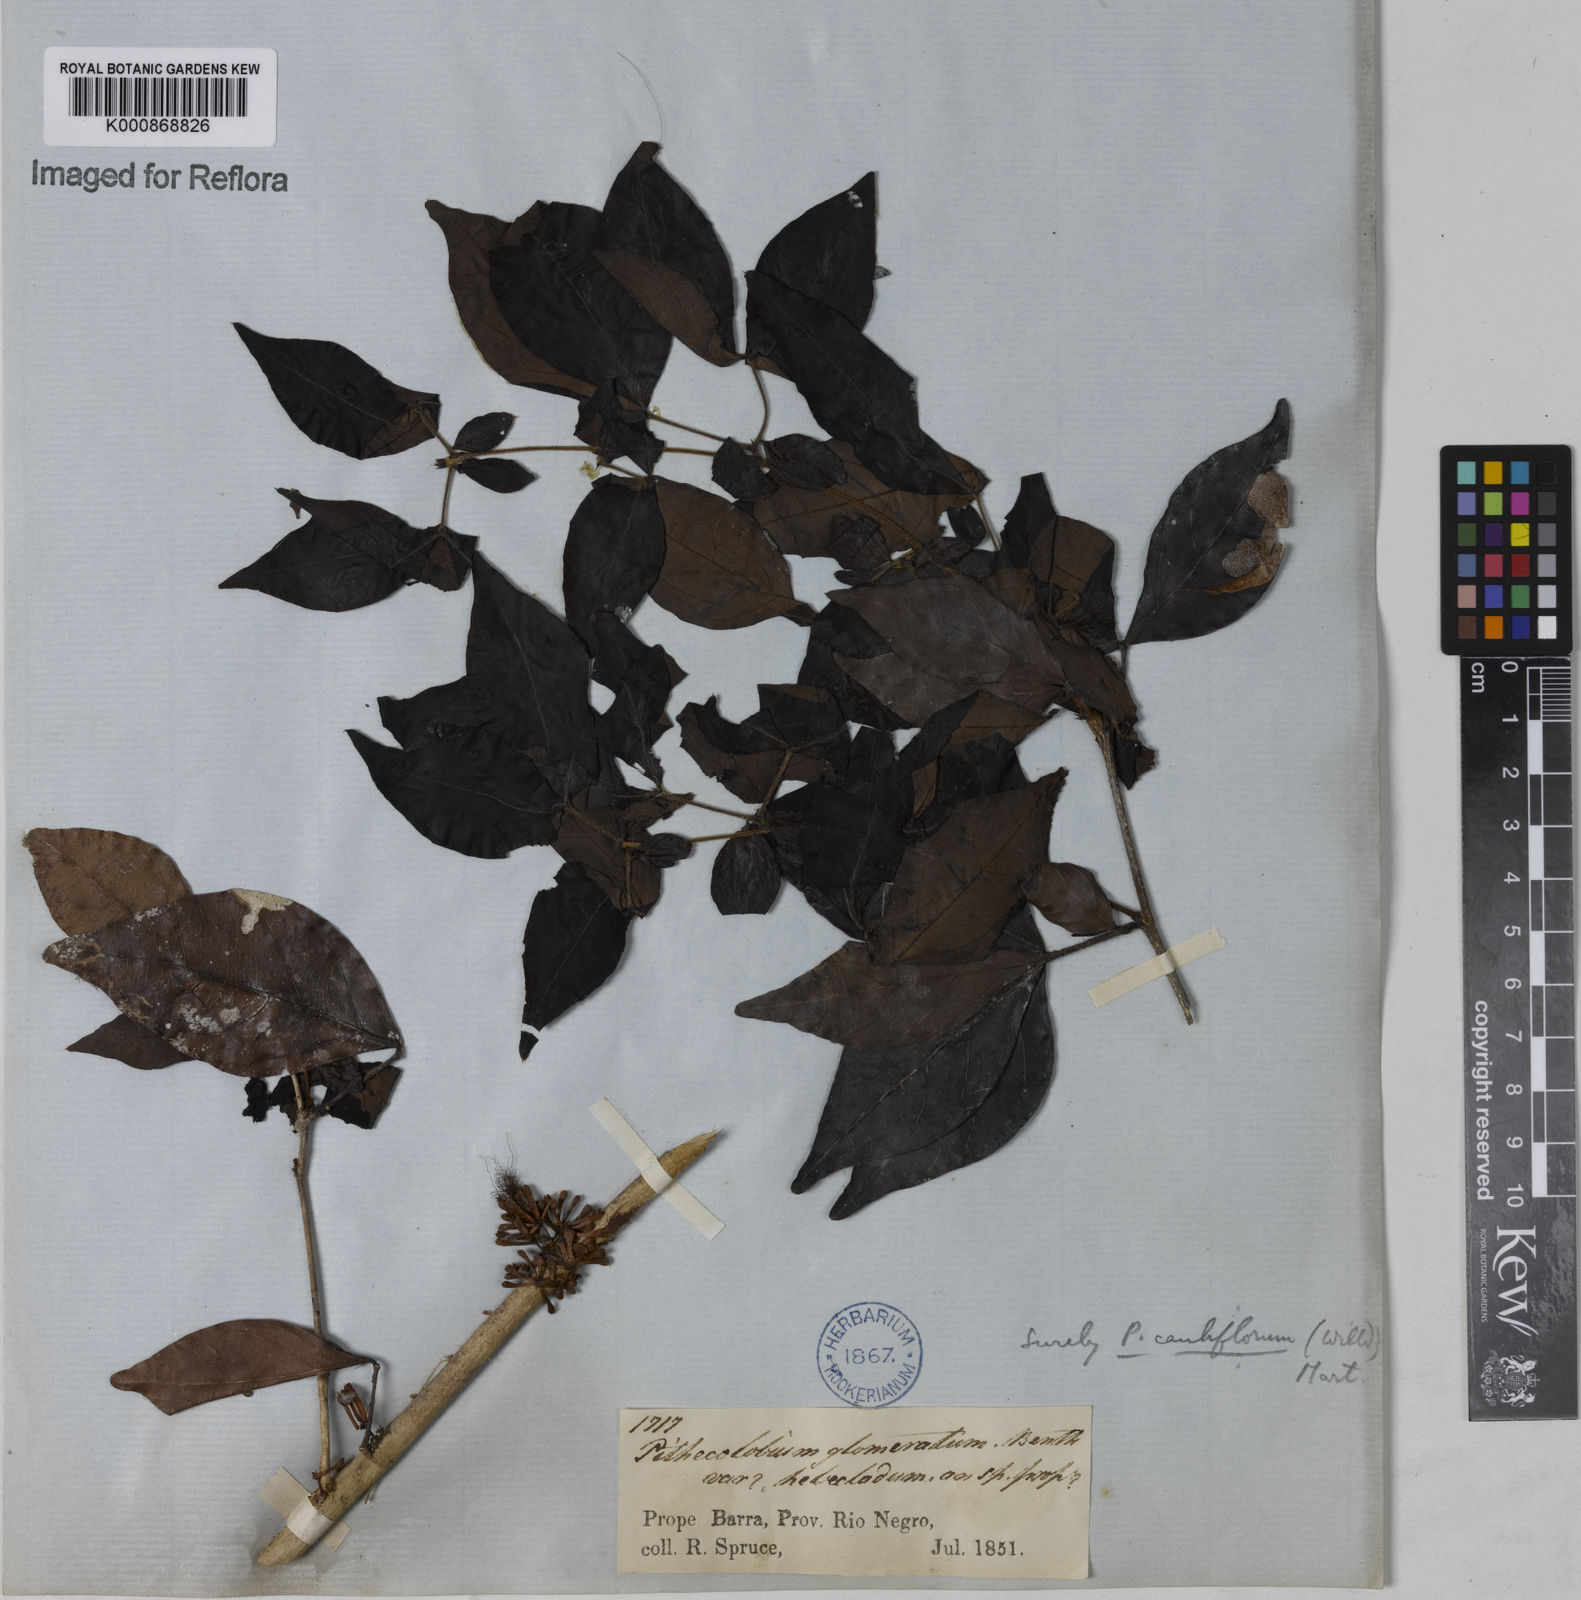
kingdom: Plantae
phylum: Tracheophyta
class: Magnoliopsida
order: Fabales
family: Fabaceae
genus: Zygia
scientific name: Zygia
